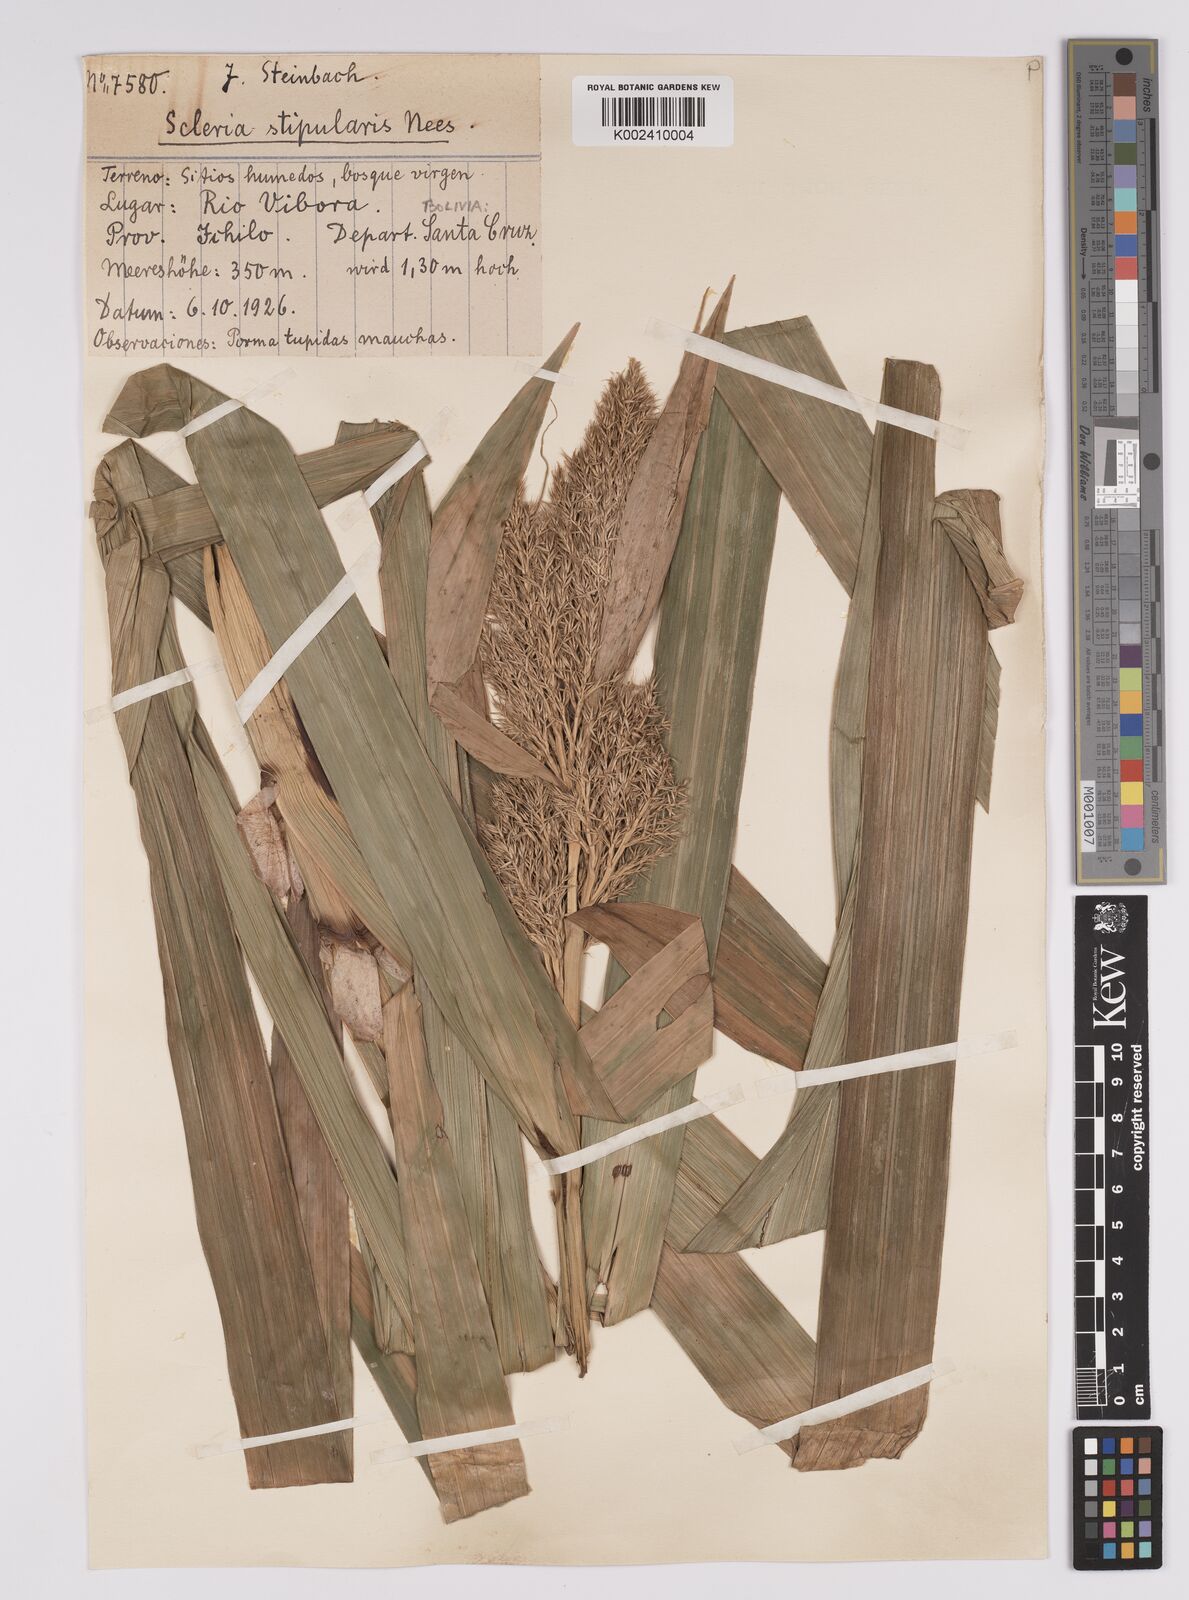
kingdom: Plantae
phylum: Tracheophyta
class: Liliopsida
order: Poales
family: Cyperaceae
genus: Scleria
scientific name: Scleria stipularis
